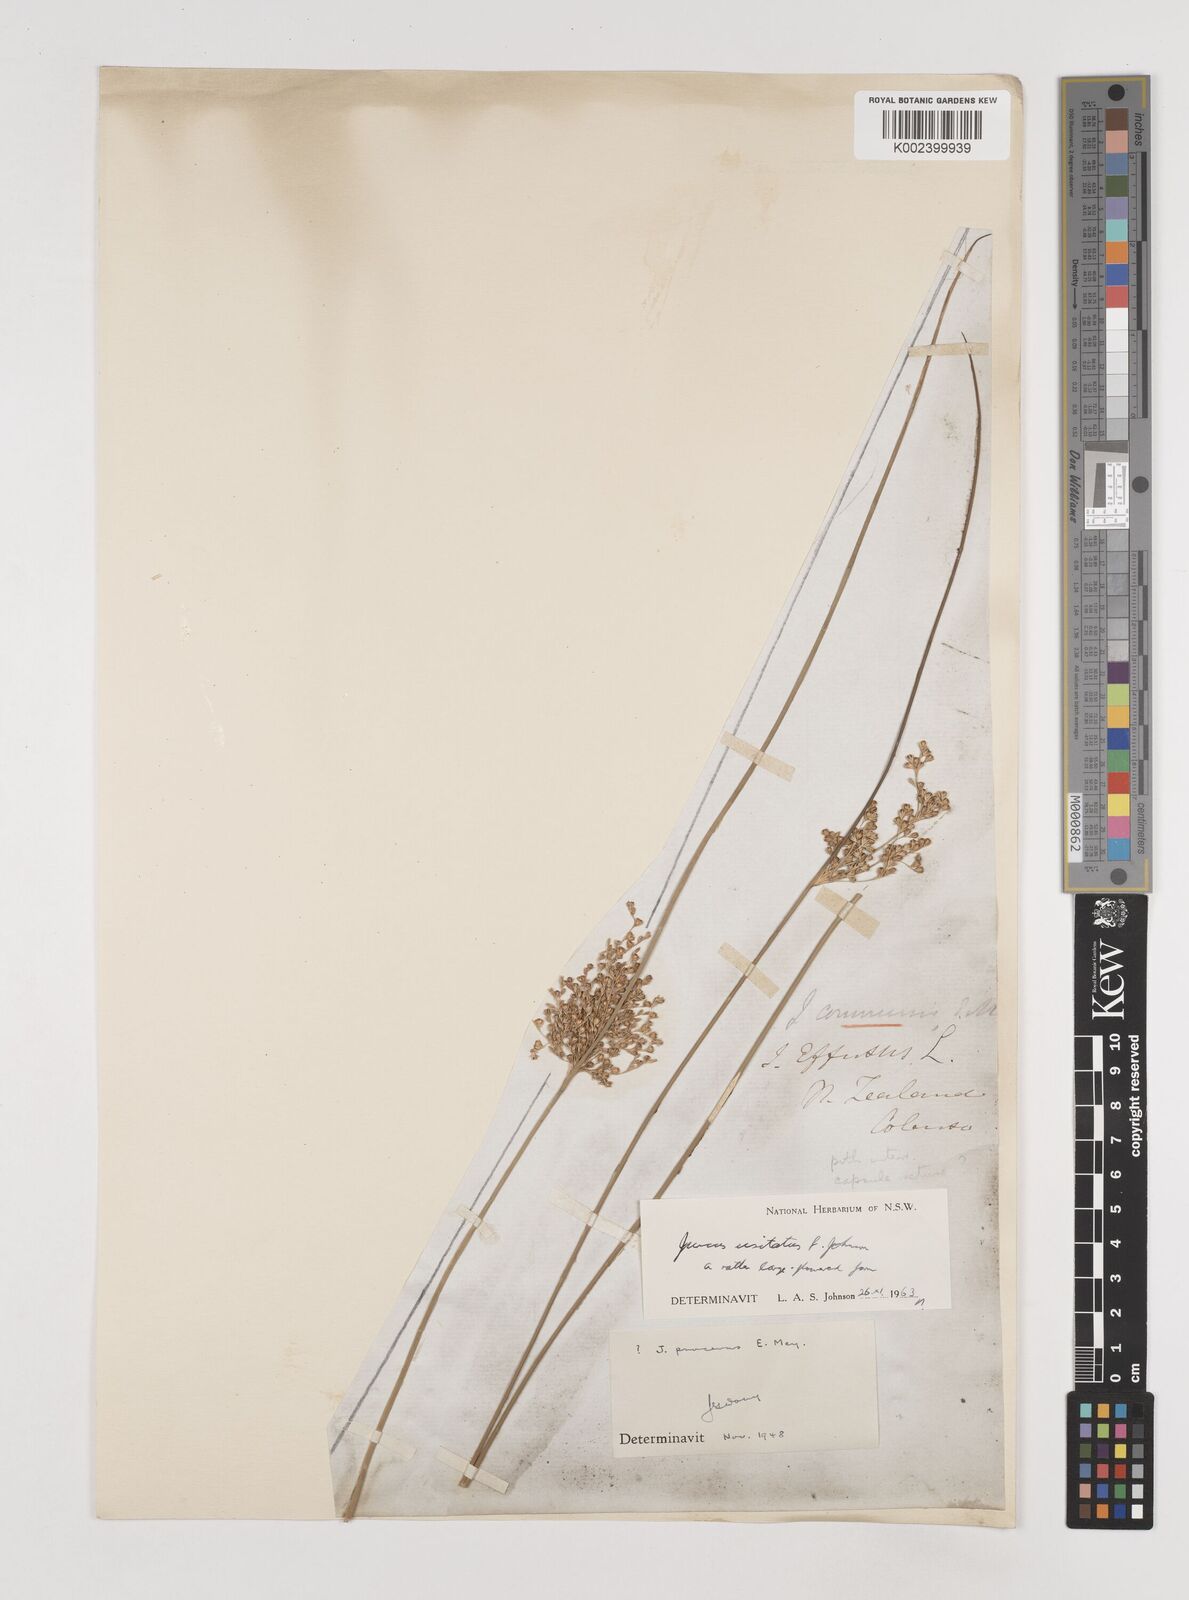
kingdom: Plantae
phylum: Tracheophyta
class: Liliopsida
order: Poales
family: Juncaceae
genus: Juncus
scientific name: Juncus usitatus
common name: Rush
